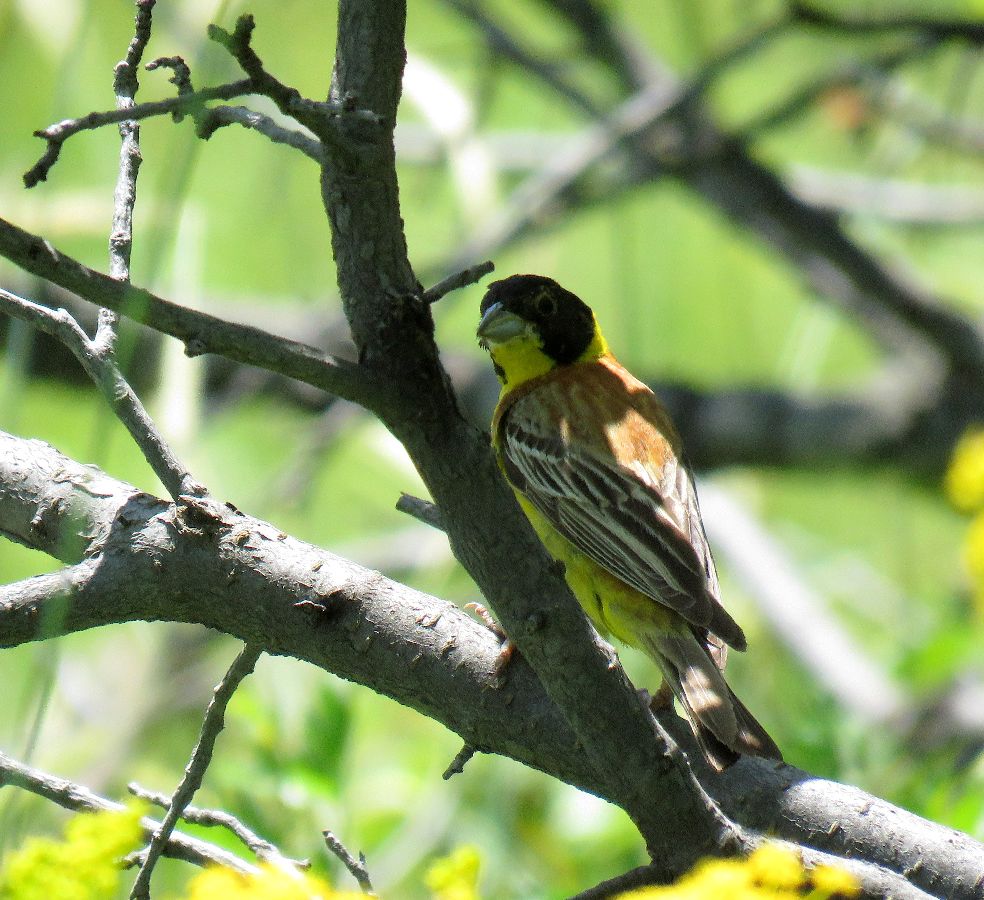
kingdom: Animalia
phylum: Chordata
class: Aves
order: Passeriformes
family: Emberizidae
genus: Emberiza
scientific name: Emberiza melanocephala
